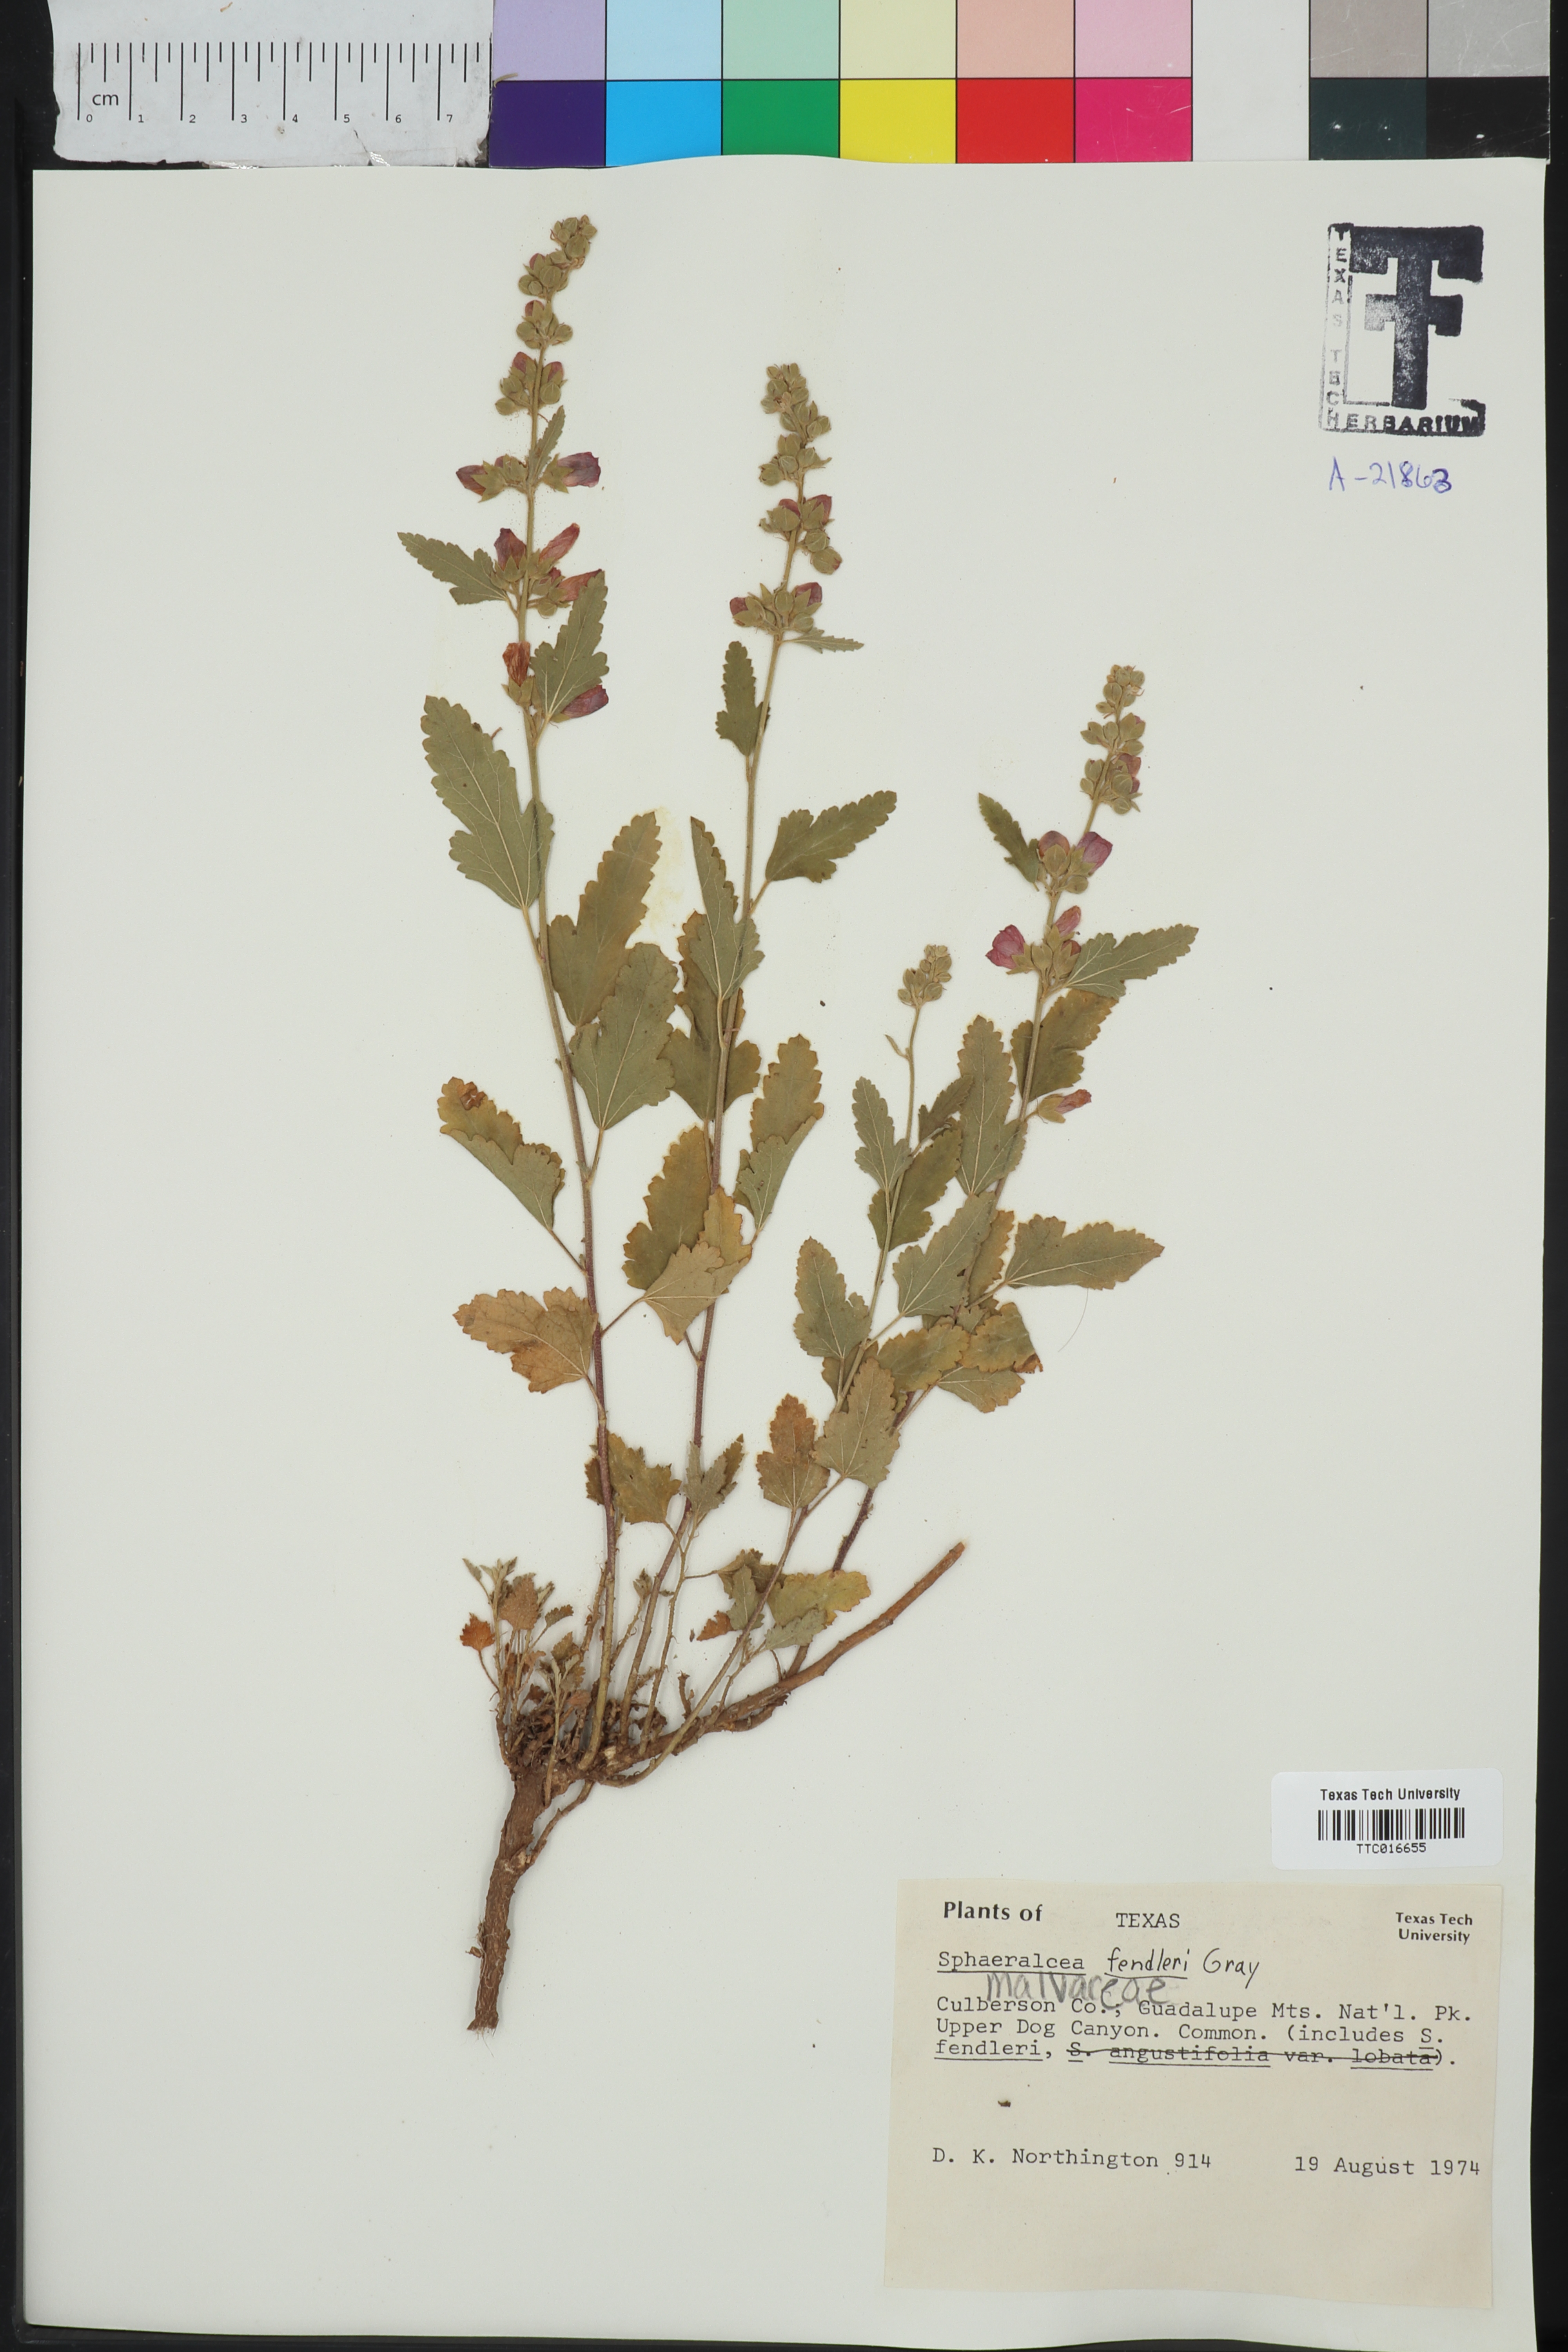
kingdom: Plantae
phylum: Tracheophyta
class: Magnoliopsida
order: Malvales
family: Malvaceae
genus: Sphaeralcea
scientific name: Sphaeralcea fendleri
